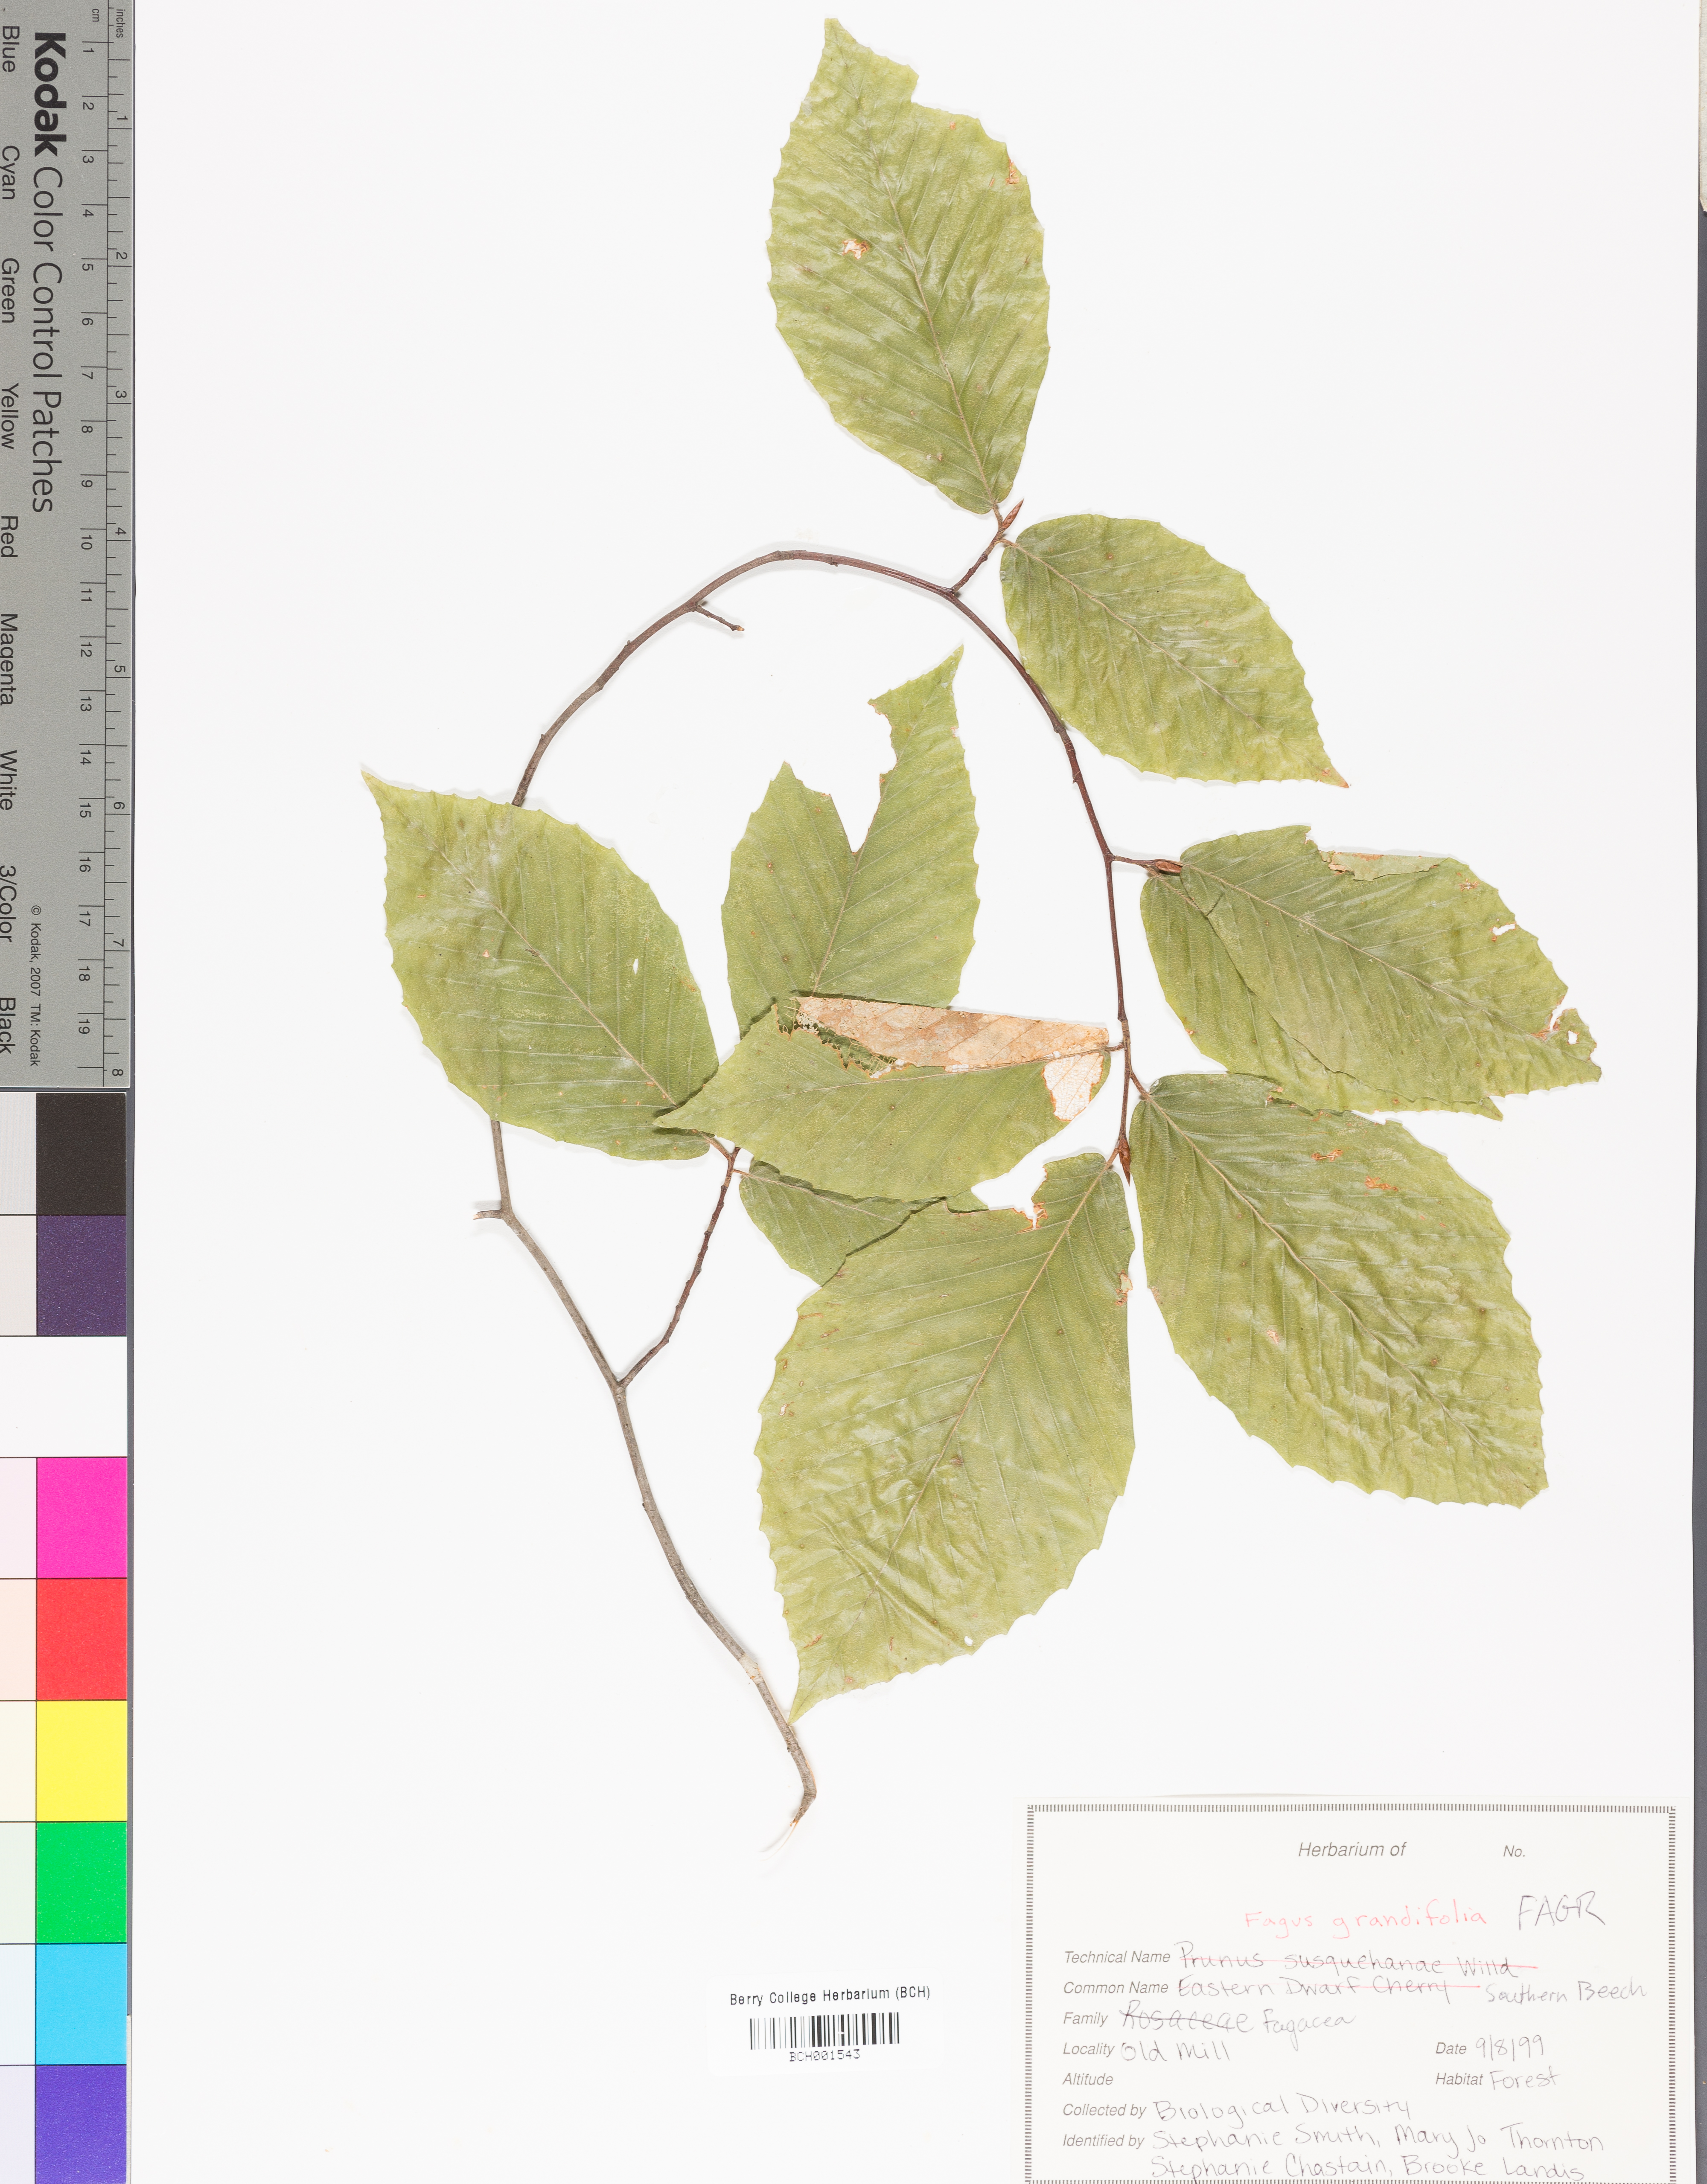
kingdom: Plantae
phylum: Tracheophyta
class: Magnoliopsida
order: Fagales
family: Fagaceae
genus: Fagus
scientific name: Fagus grandifolia
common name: American beech
